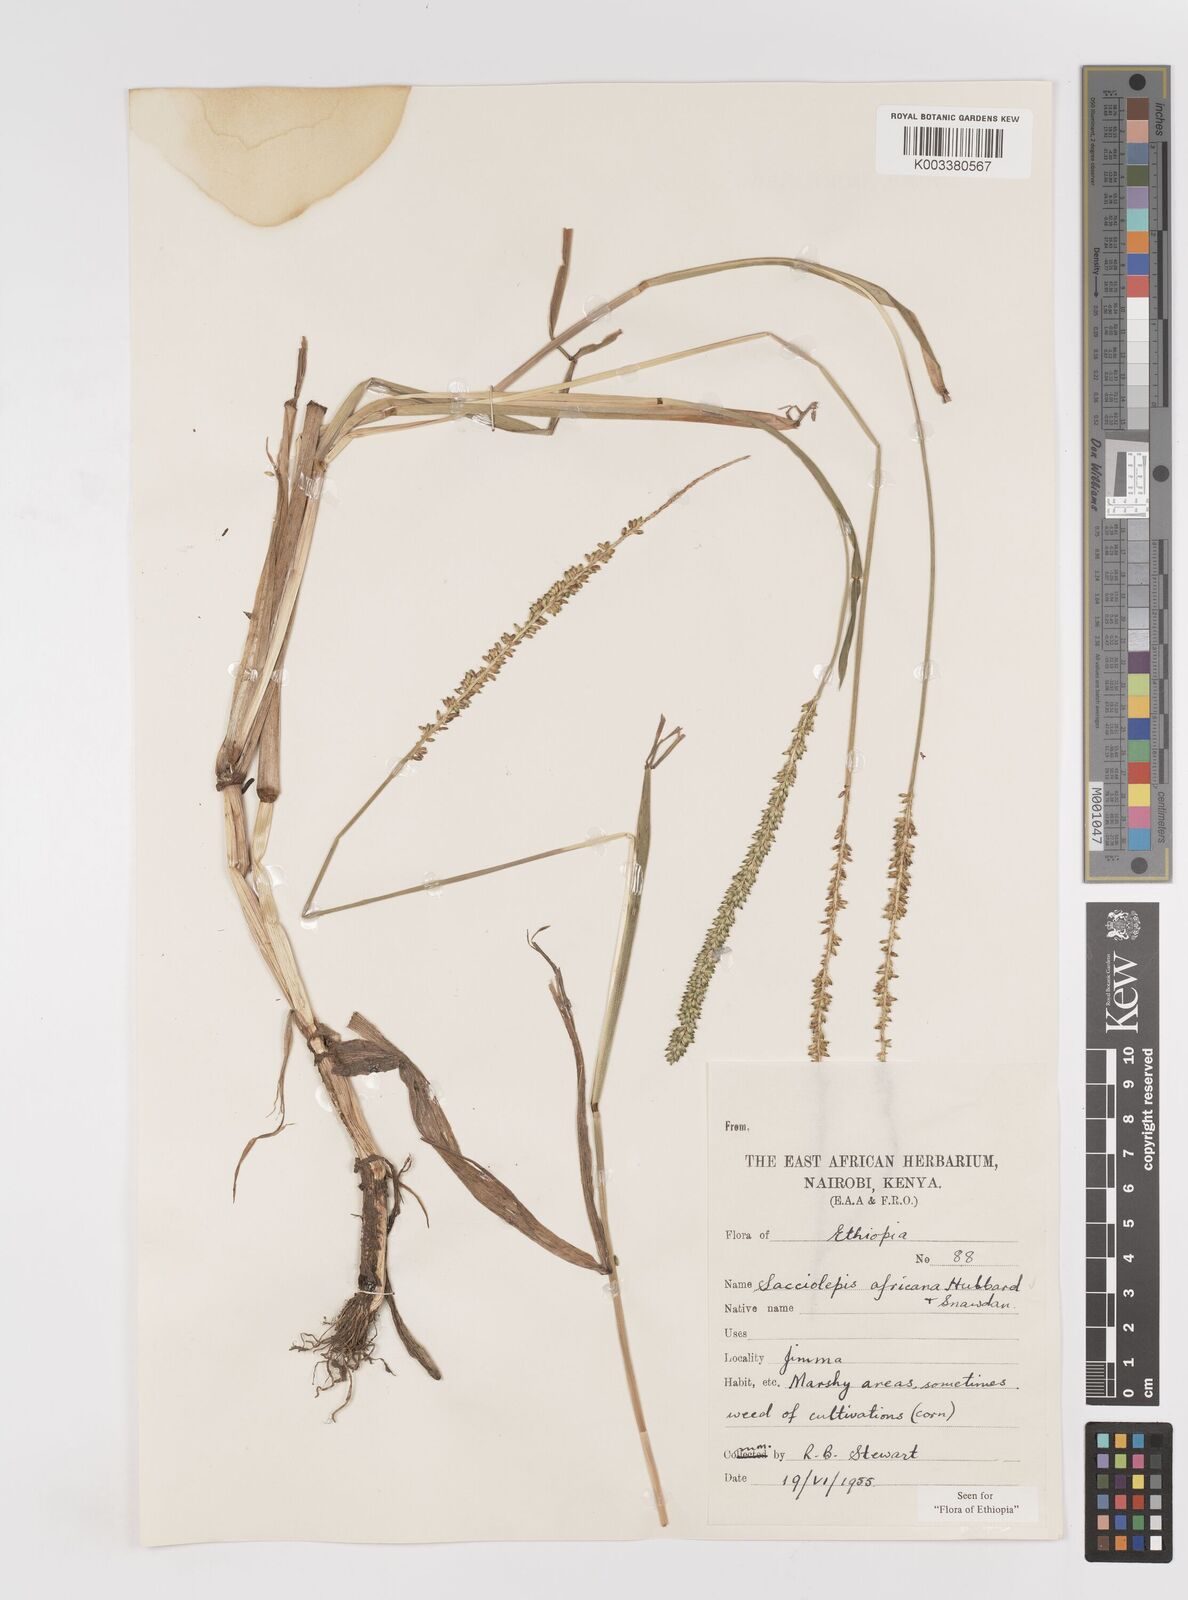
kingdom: Plantae
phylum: Tracheophyta
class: Liliopsida
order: Poales
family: Poaceae
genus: Sacciolepis
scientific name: Sacciolepis africana
